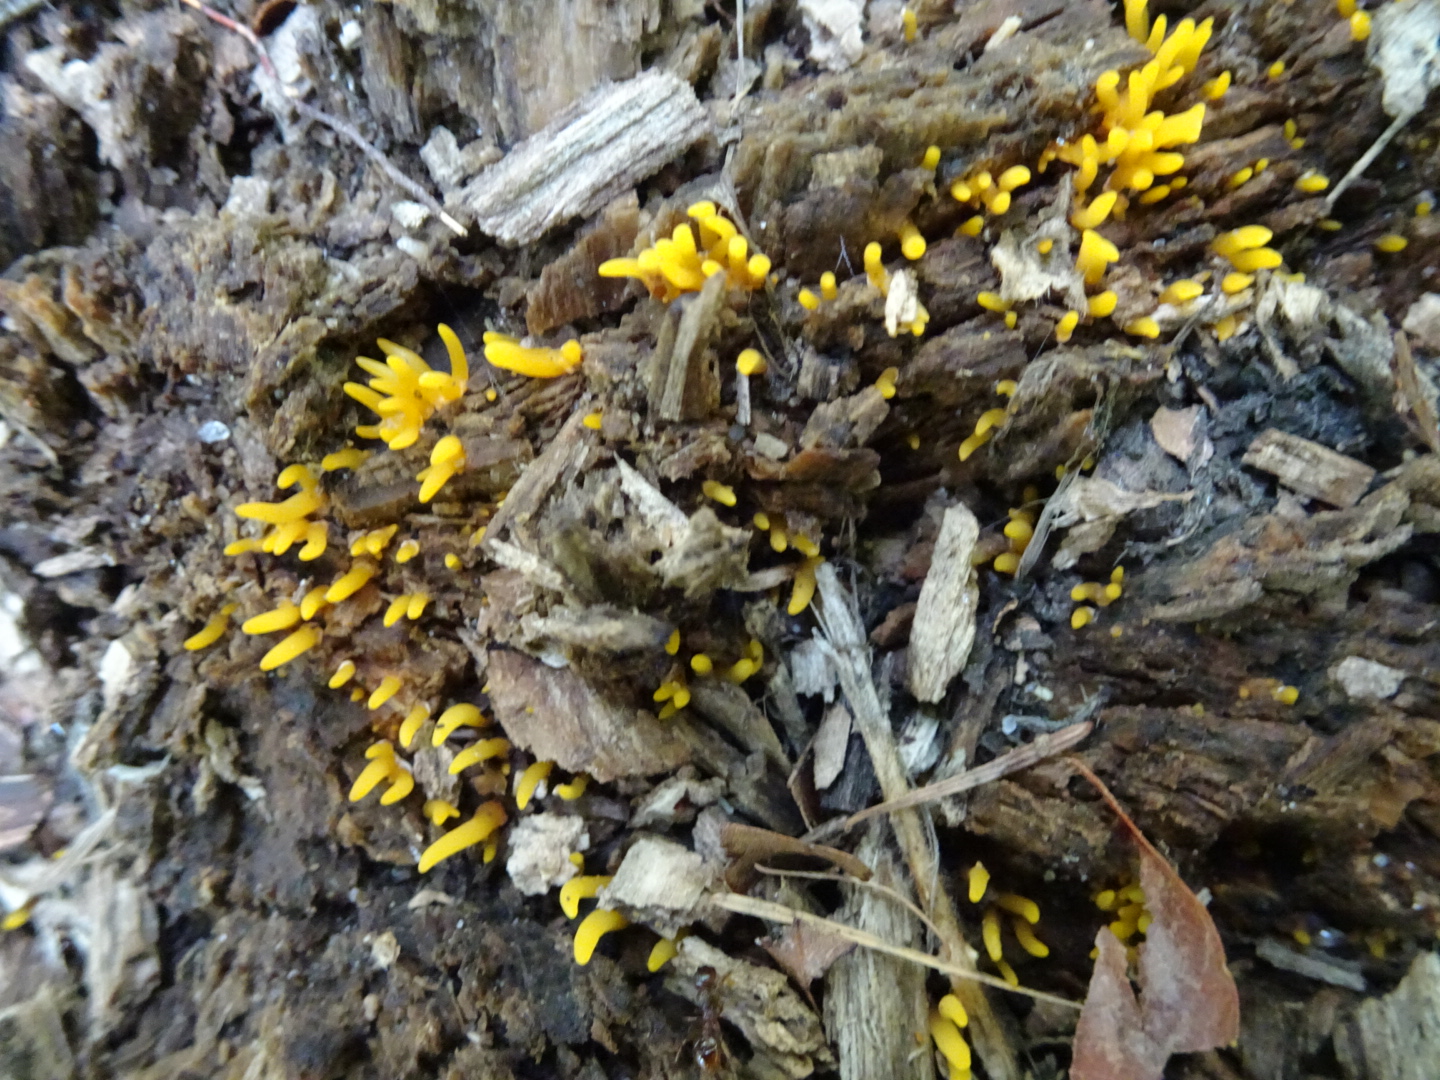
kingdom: Fungi
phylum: Basidiomycota
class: Dacrymycetes
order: Dacrymycetales
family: Dacrymycetaceae
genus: Calocera
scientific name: Calocera cornea
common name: liden guldgaffel
